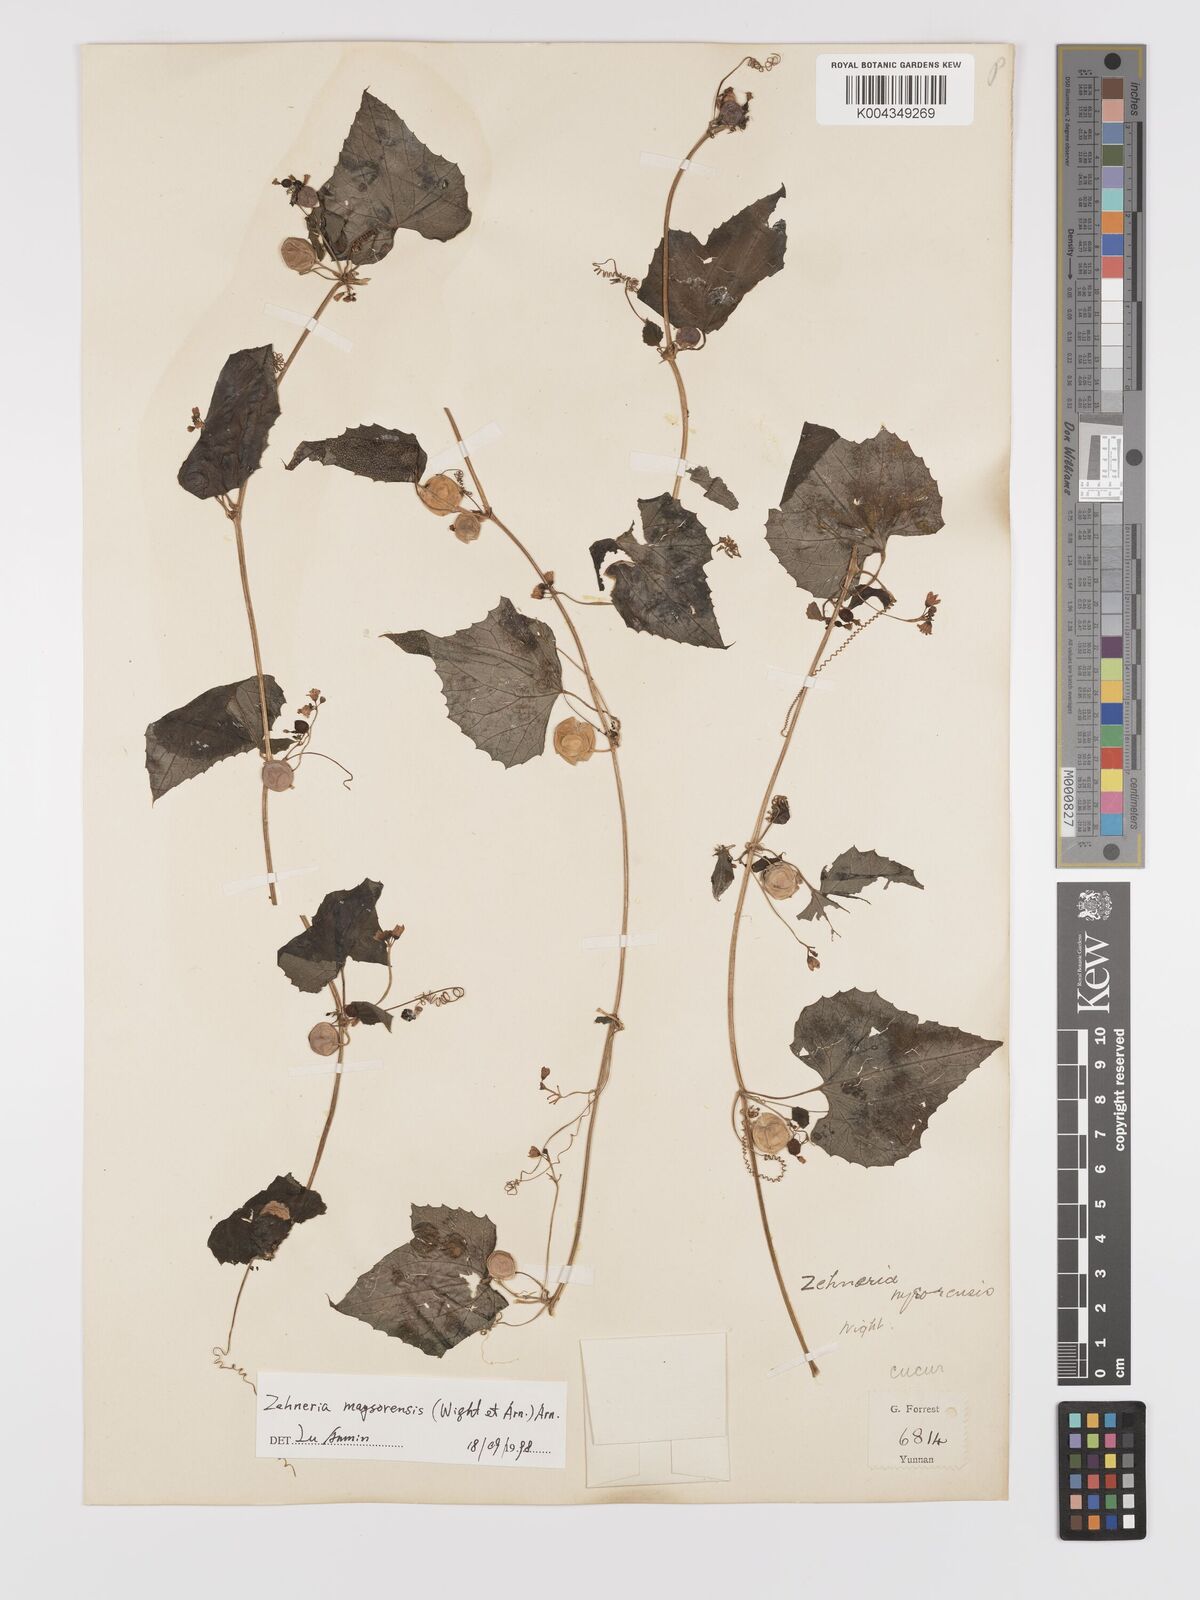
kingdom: Plantae
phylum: Tracheophyta
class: Magnoliopsida
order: Cucurbitales
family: Cucurbitaceae
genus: Zehneria
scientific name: Zehneria maysorensis
